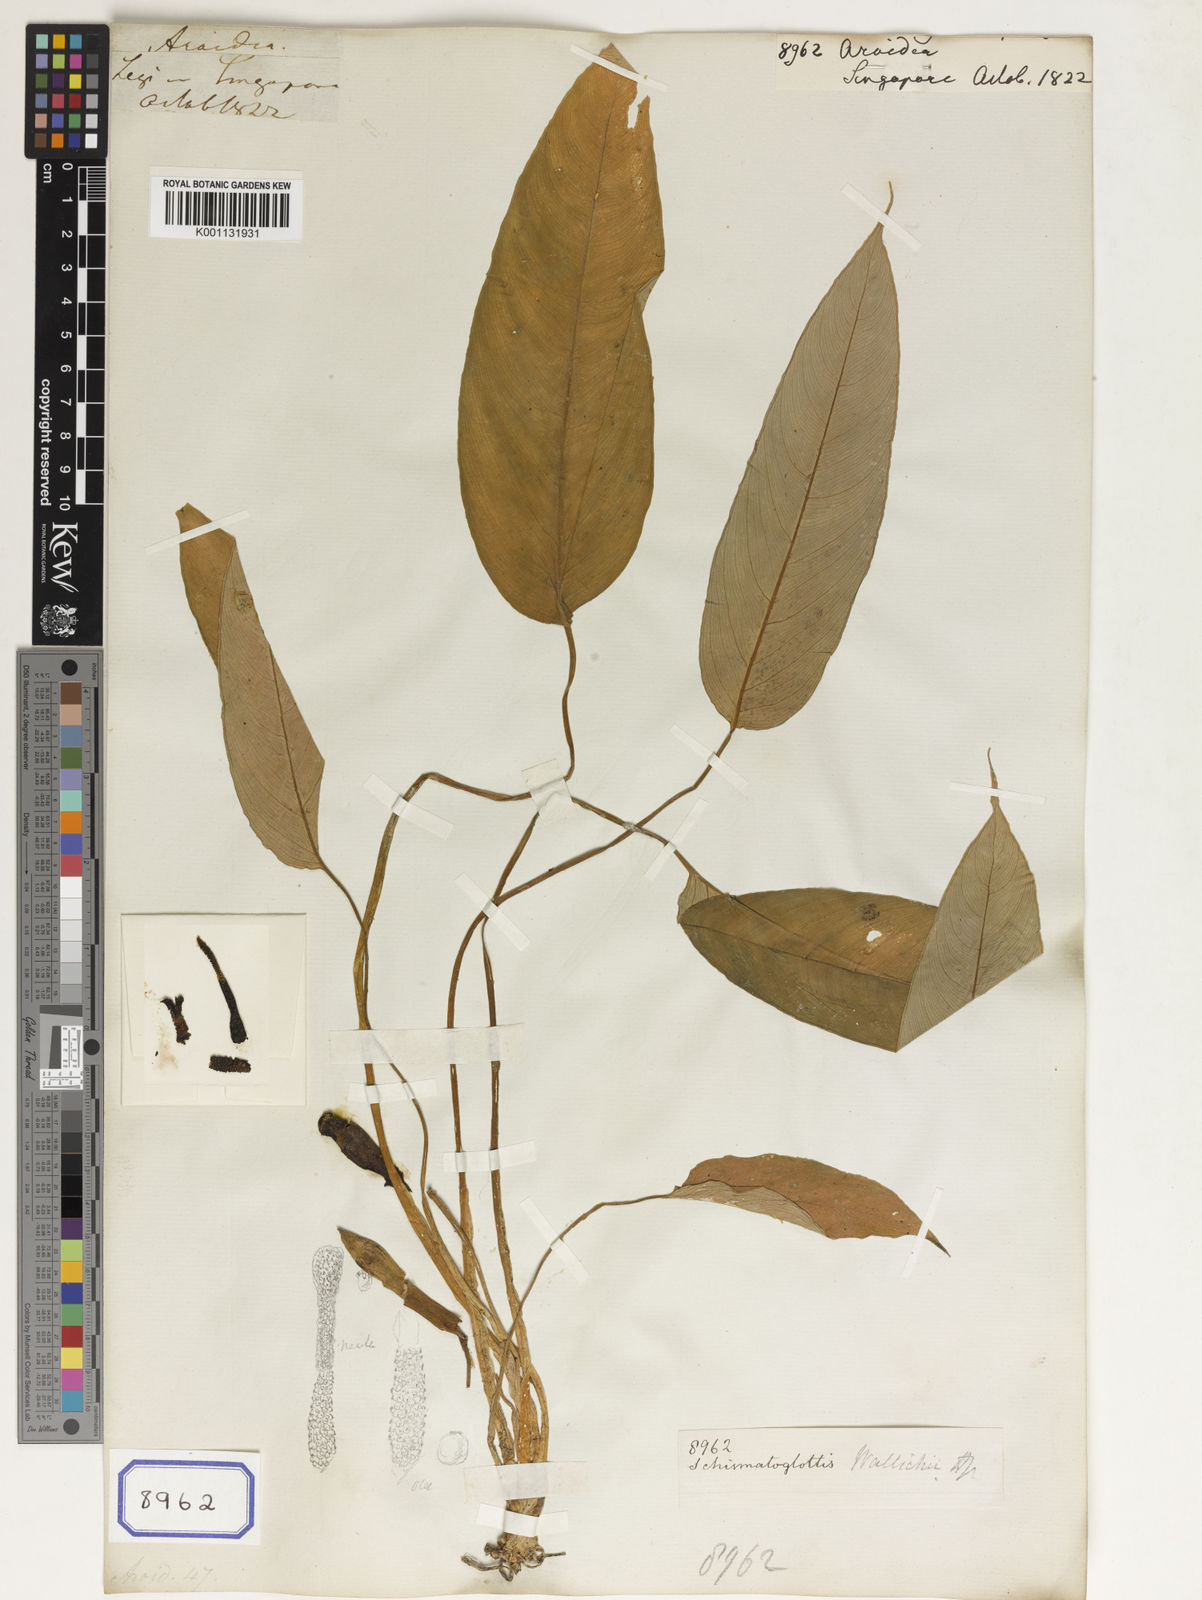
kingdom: Plantae
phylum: Tracheophyta
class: Liliopsida
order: Alismatales
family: Araceae
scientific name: Araceae
